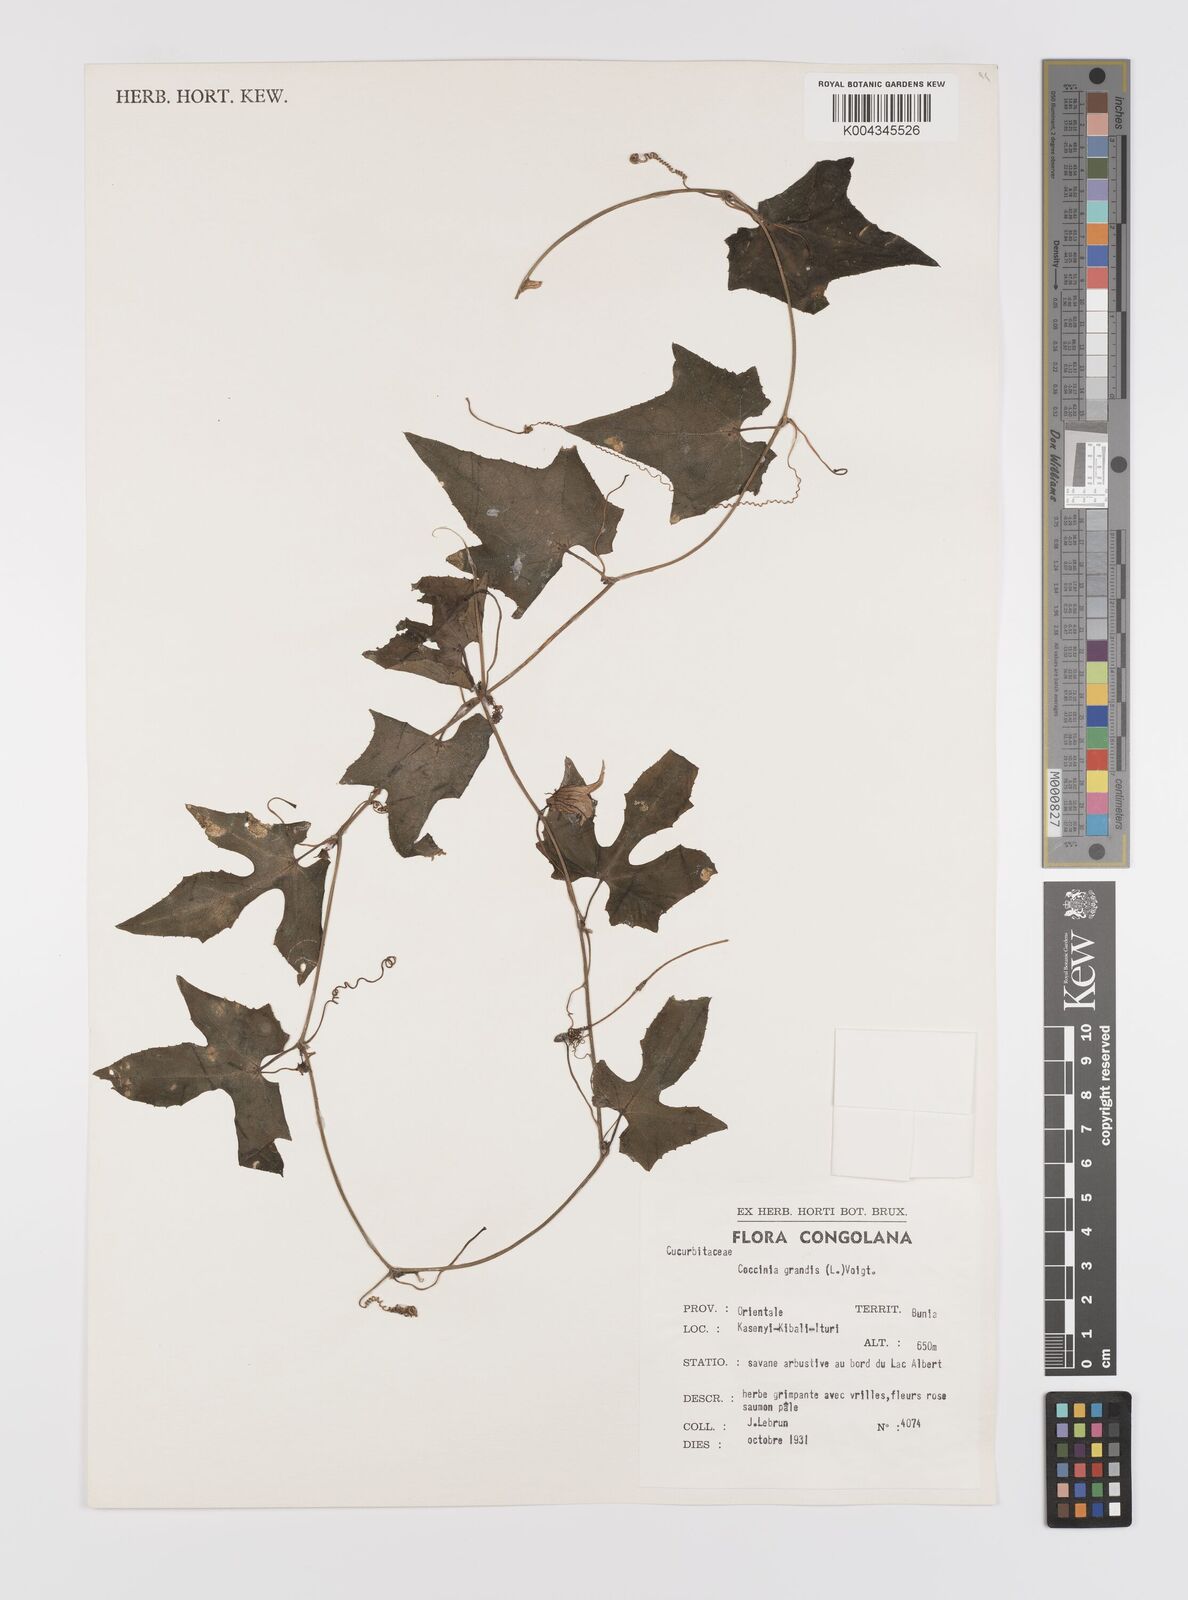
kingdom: Plantae
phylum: Tracheophyta
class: Magnoliopsida
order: Cucurbitales
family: Cucurbitaceae
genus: Coccinia
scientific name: Coccinia grandis
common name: Ivy gourd
